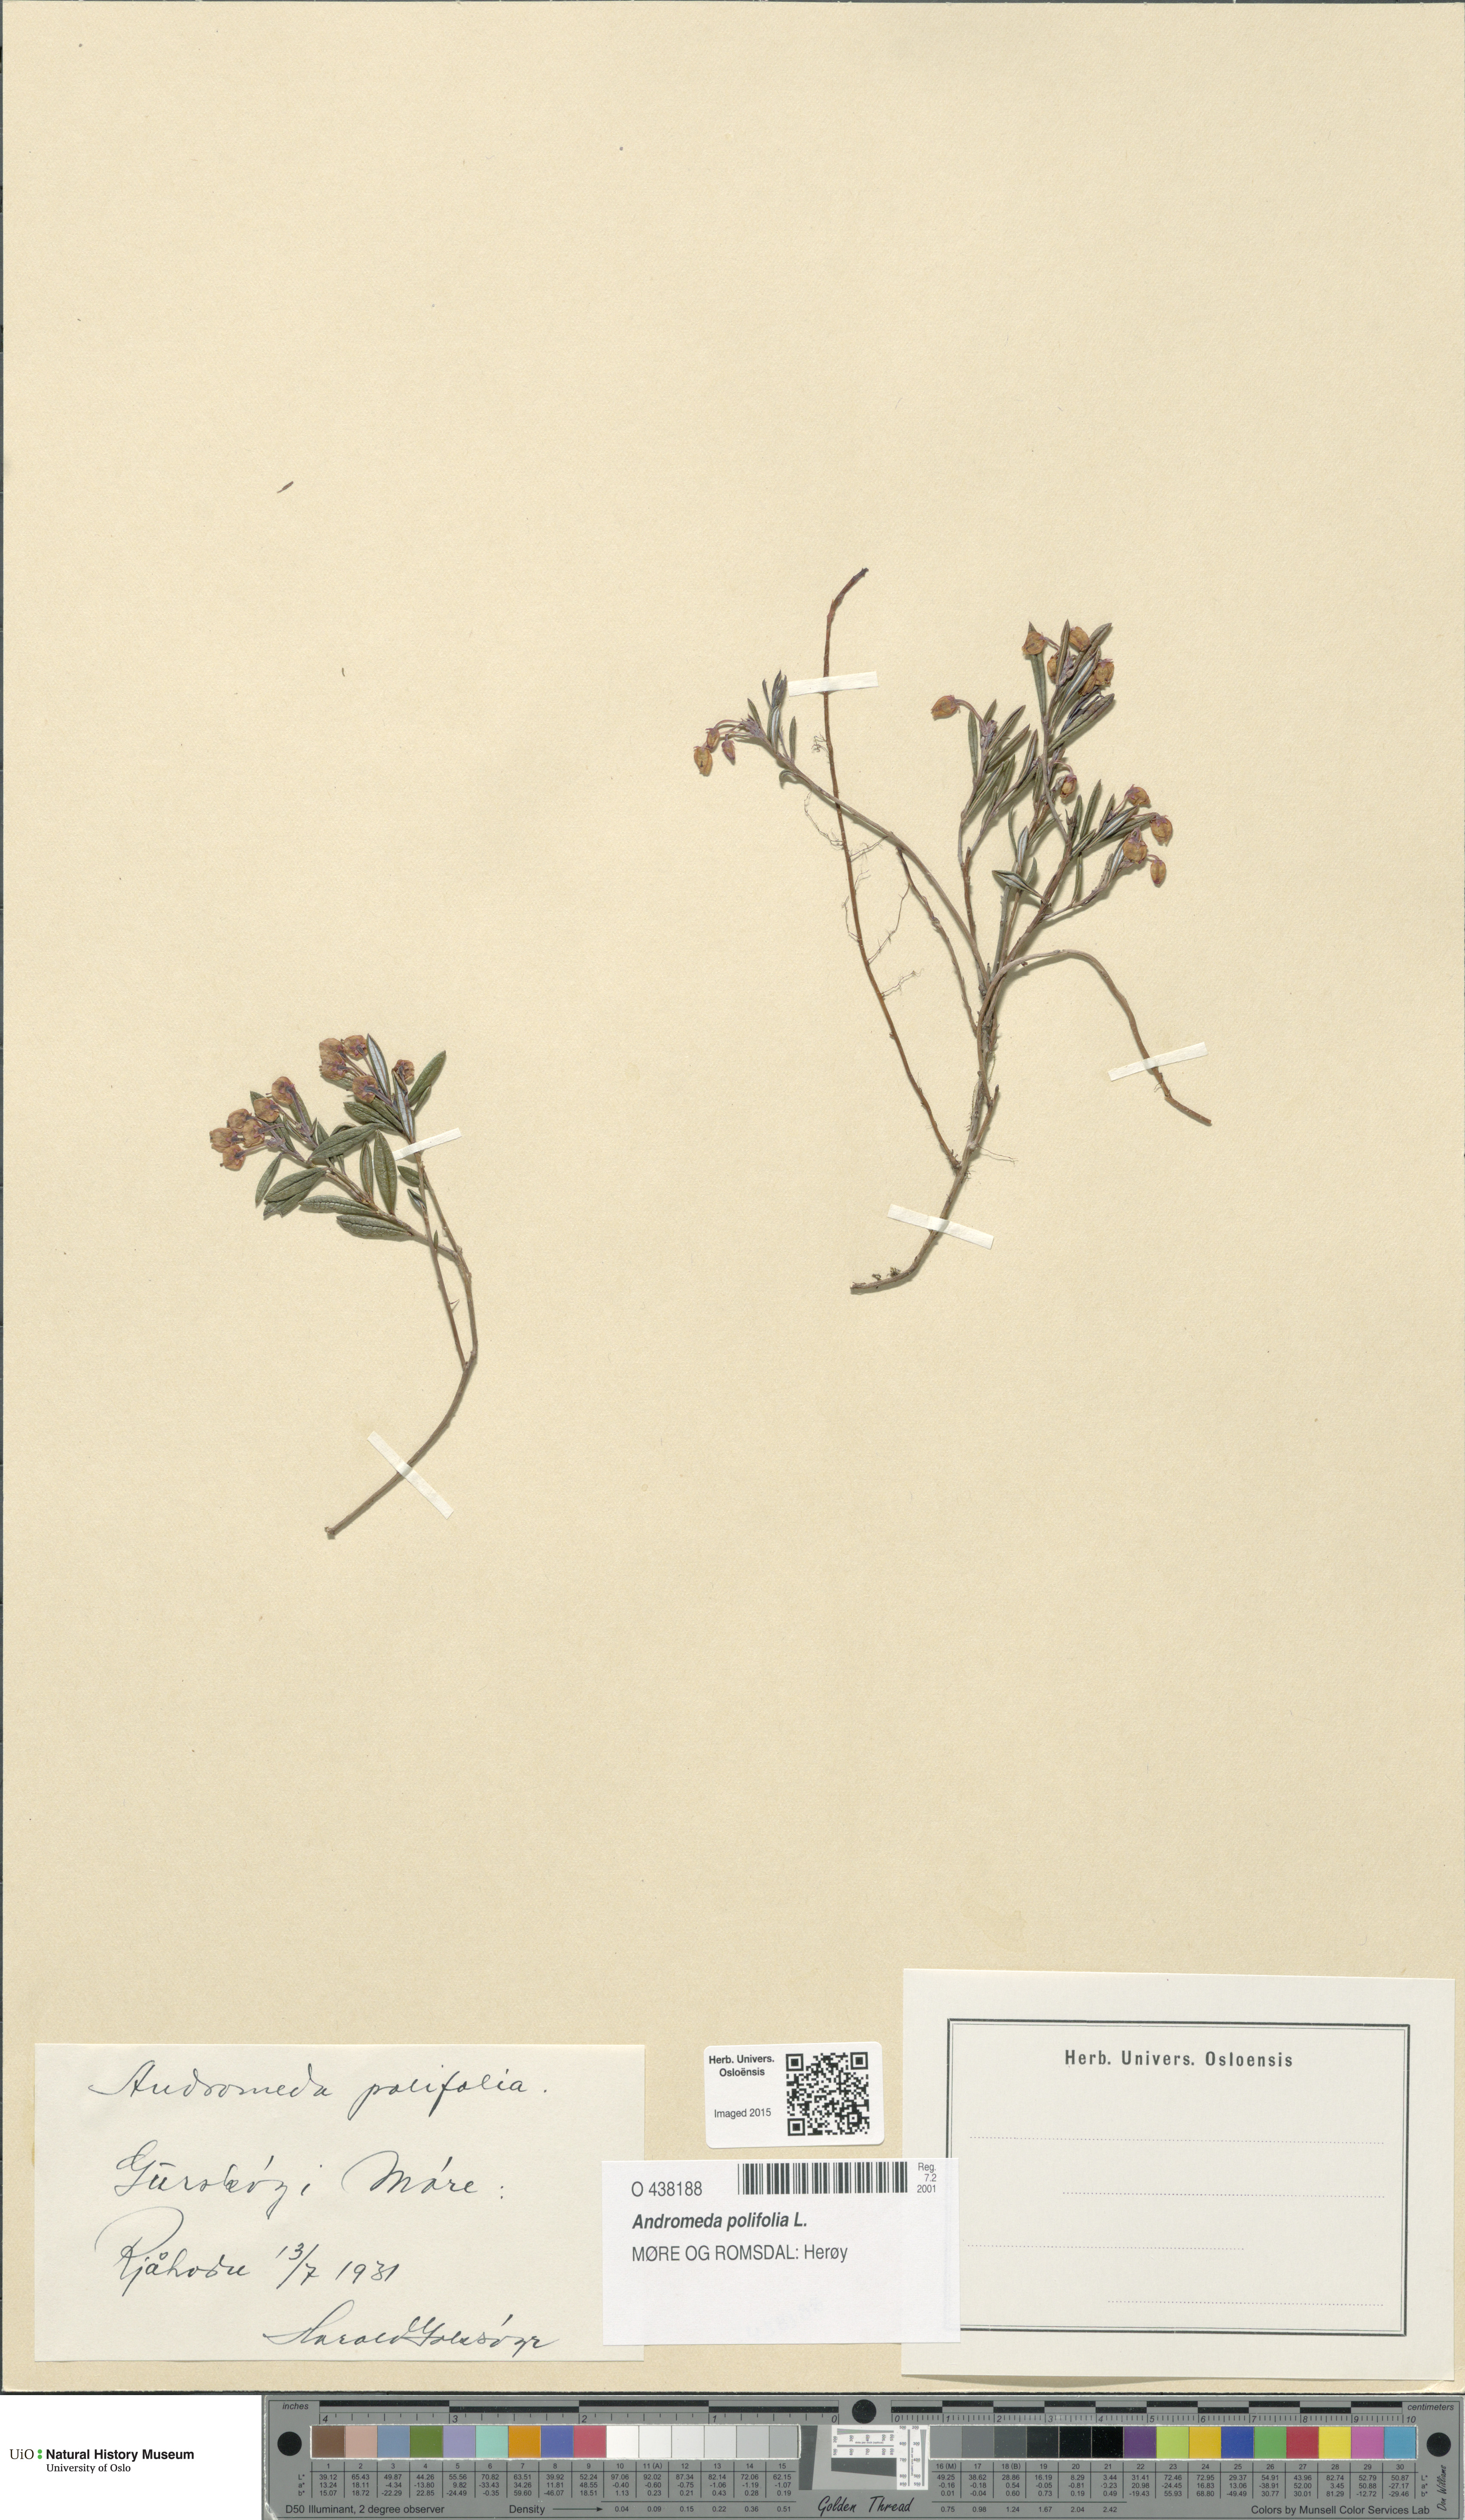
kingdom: Plantae
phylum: Tracheophyta
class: Magnoliopsida
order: Ericales
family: Ericaceae
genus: Andromeda
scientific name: Andromeda polifolia
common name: Bog-rosemary
